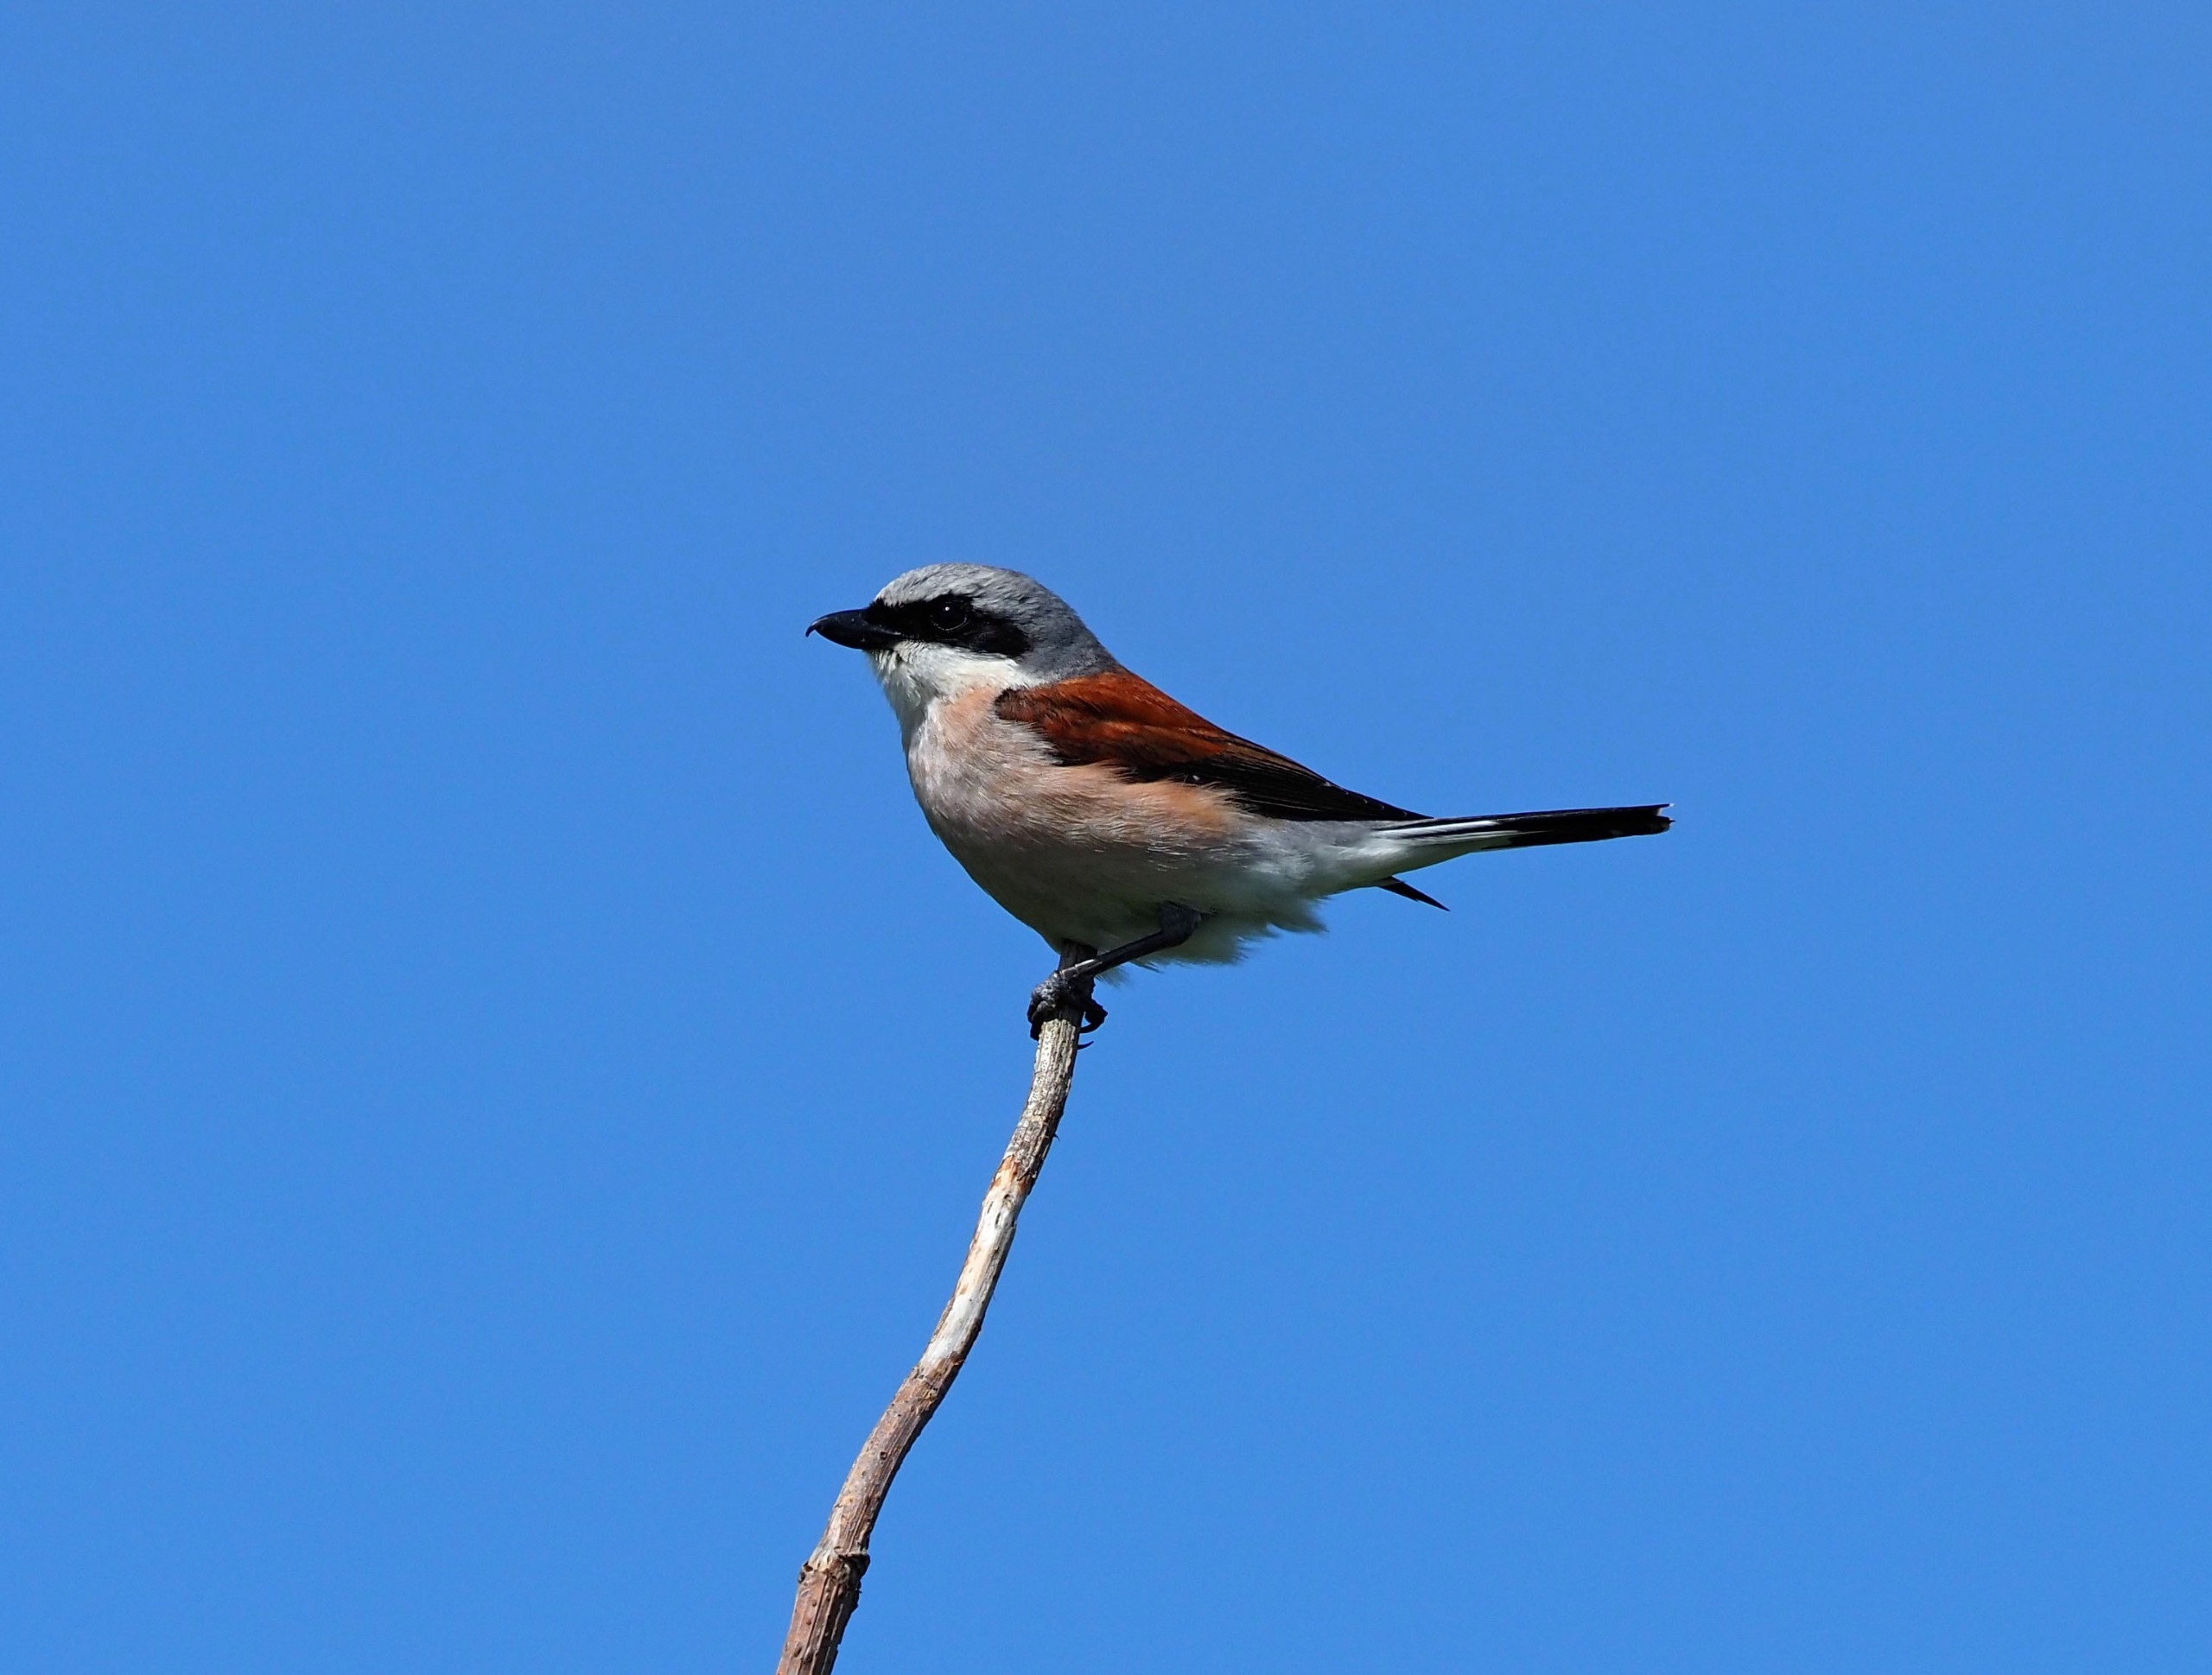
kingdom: Animalia
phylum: Chordata
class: Aves
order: Passeriformes
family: Laniidae
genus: Lanius
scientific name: Lanius collurio
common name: Rødrygget tornskade
